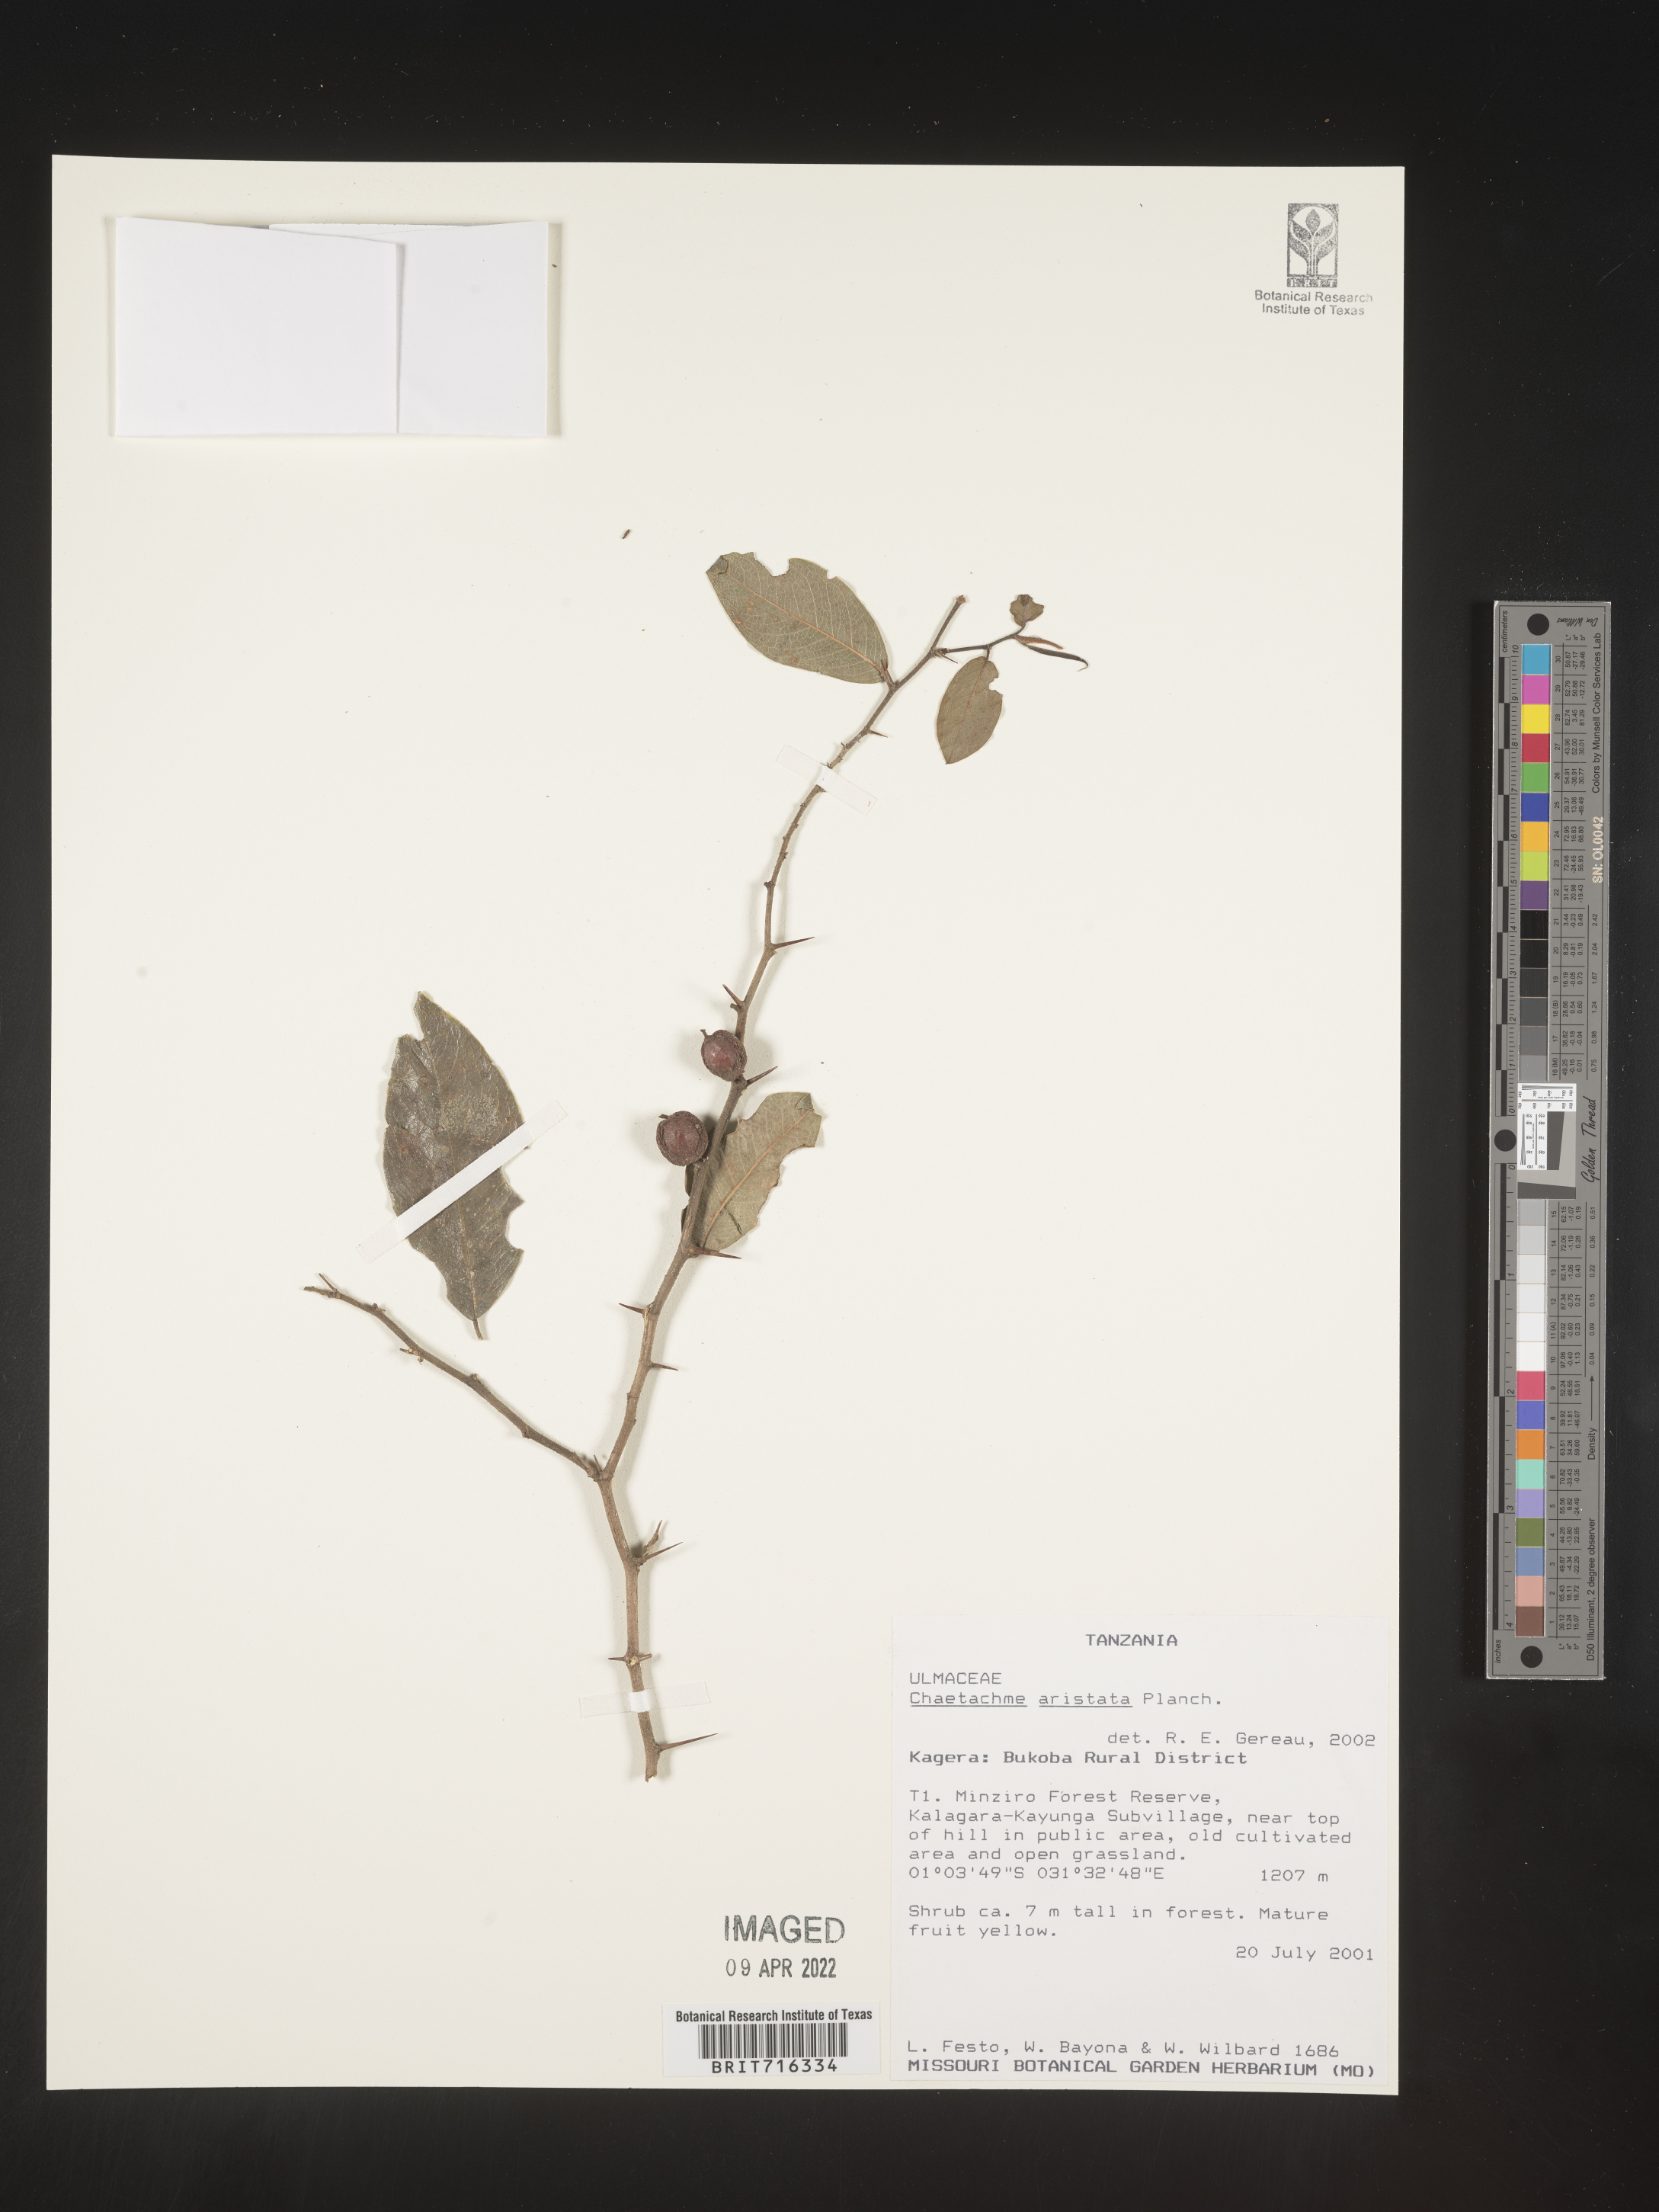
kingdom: Plantae
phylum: Tracheophyta
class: Magnoliopsida
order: Rosales
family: Cannabaceae
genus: Chaetachme
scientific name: Chaetachme
